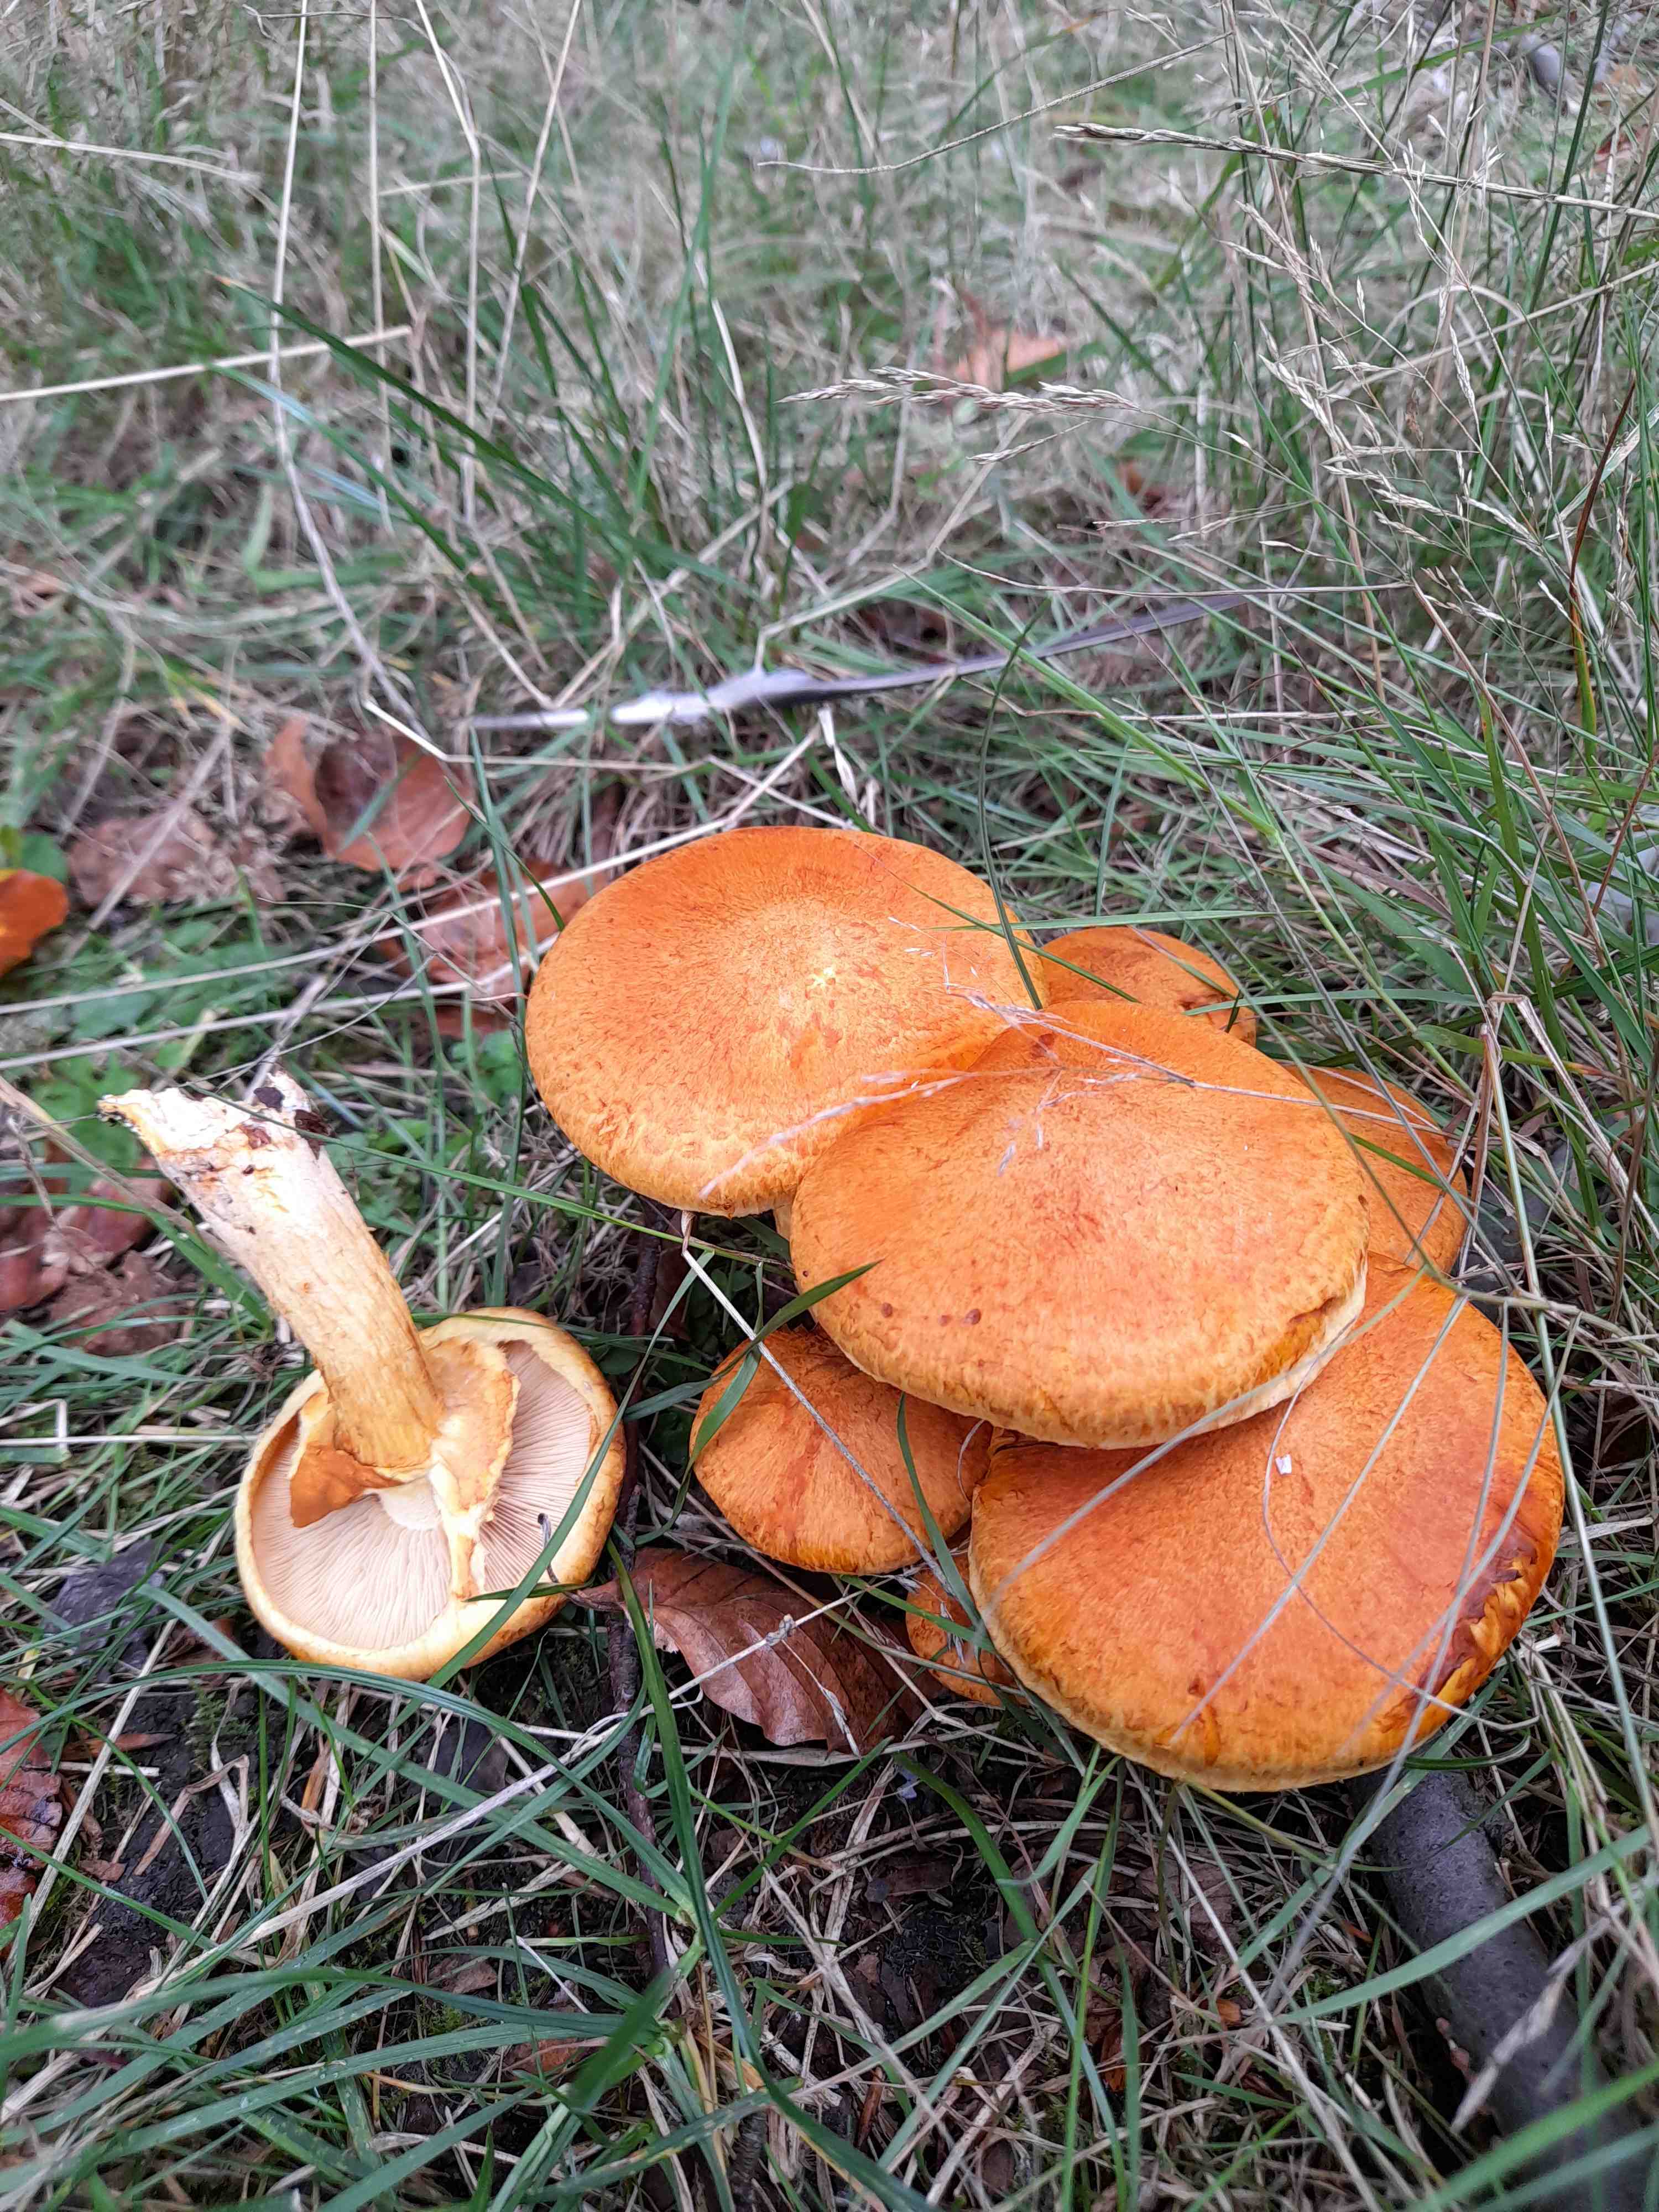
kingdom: Fungi
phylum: Basidiomycota
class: Agaricomycetes
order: Agaricales
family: Hymenogastraceae
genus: Gymnopilus
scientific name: Gymnopilus spectabilis
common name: fibret flammehat
